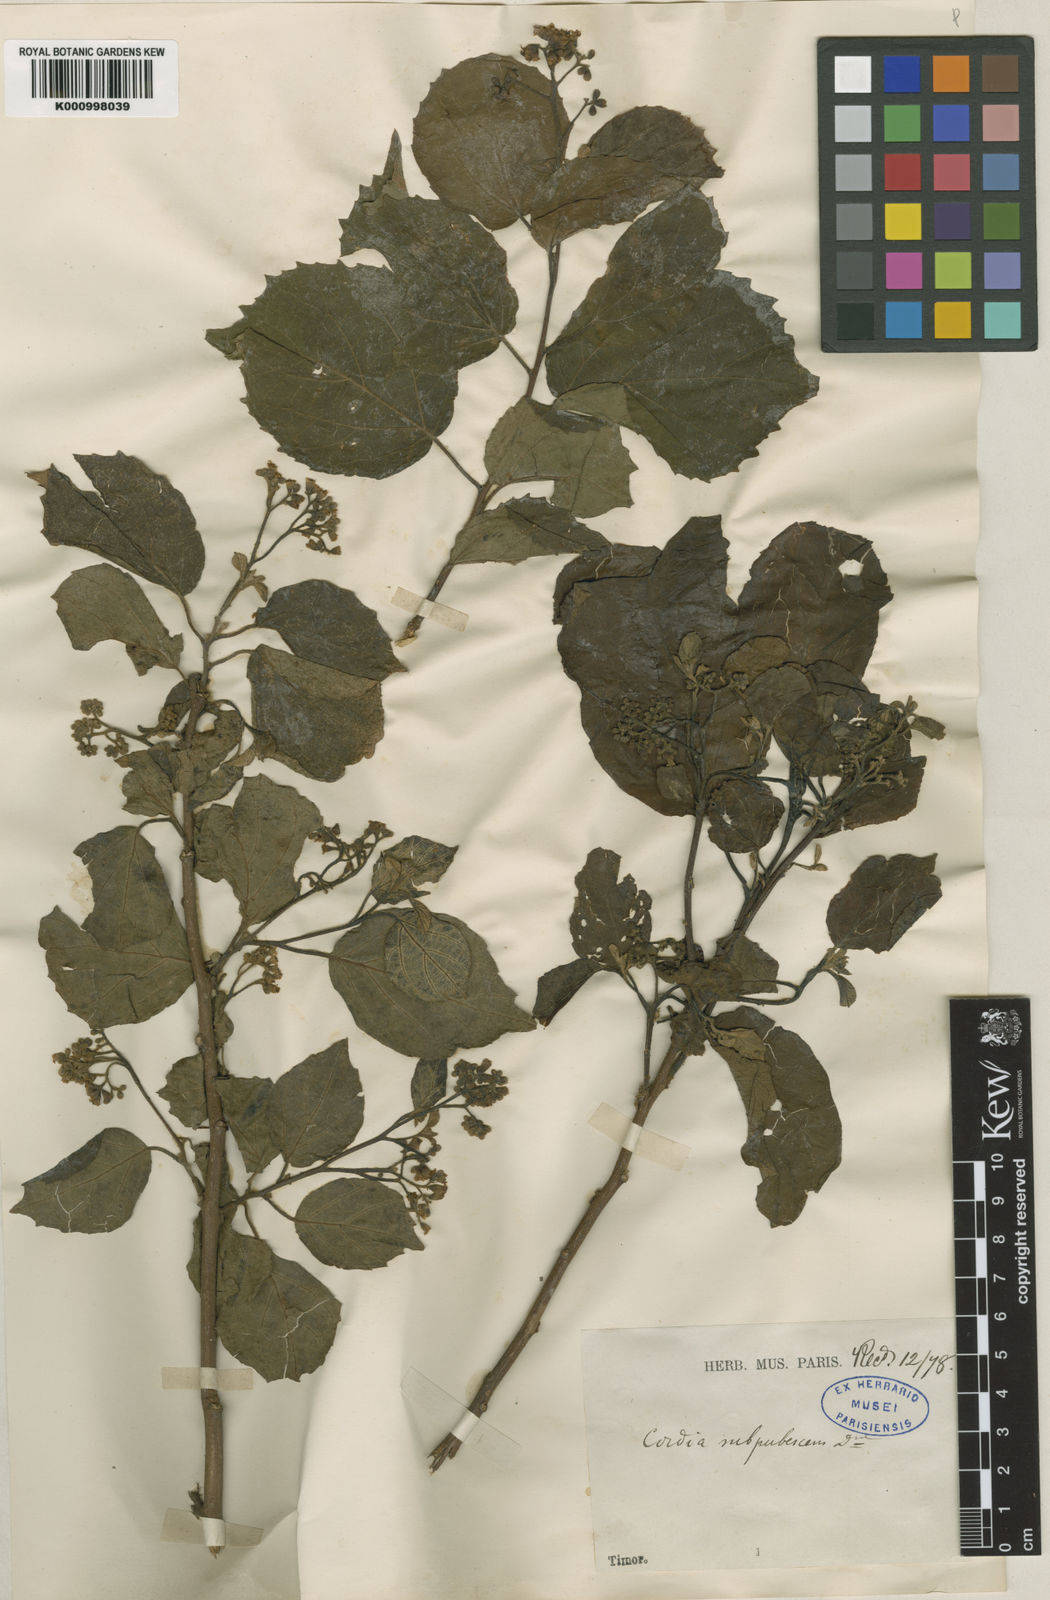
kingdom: Plantae
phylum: Tracheophyta
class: Magnoliopsida
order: Boraginales
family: Cordiaceae
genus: Cordia
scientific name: Cordia dichotoma
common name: Fragrant manjack
